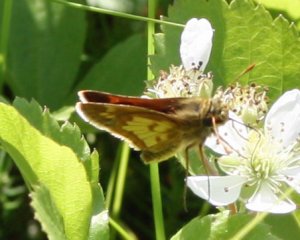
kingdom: Animalia
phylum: Arthropoda
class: Insecta
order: Lepidoptera
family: Hesperiidae
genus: Polites
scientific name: Polites coras
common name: Peck's Skipper
